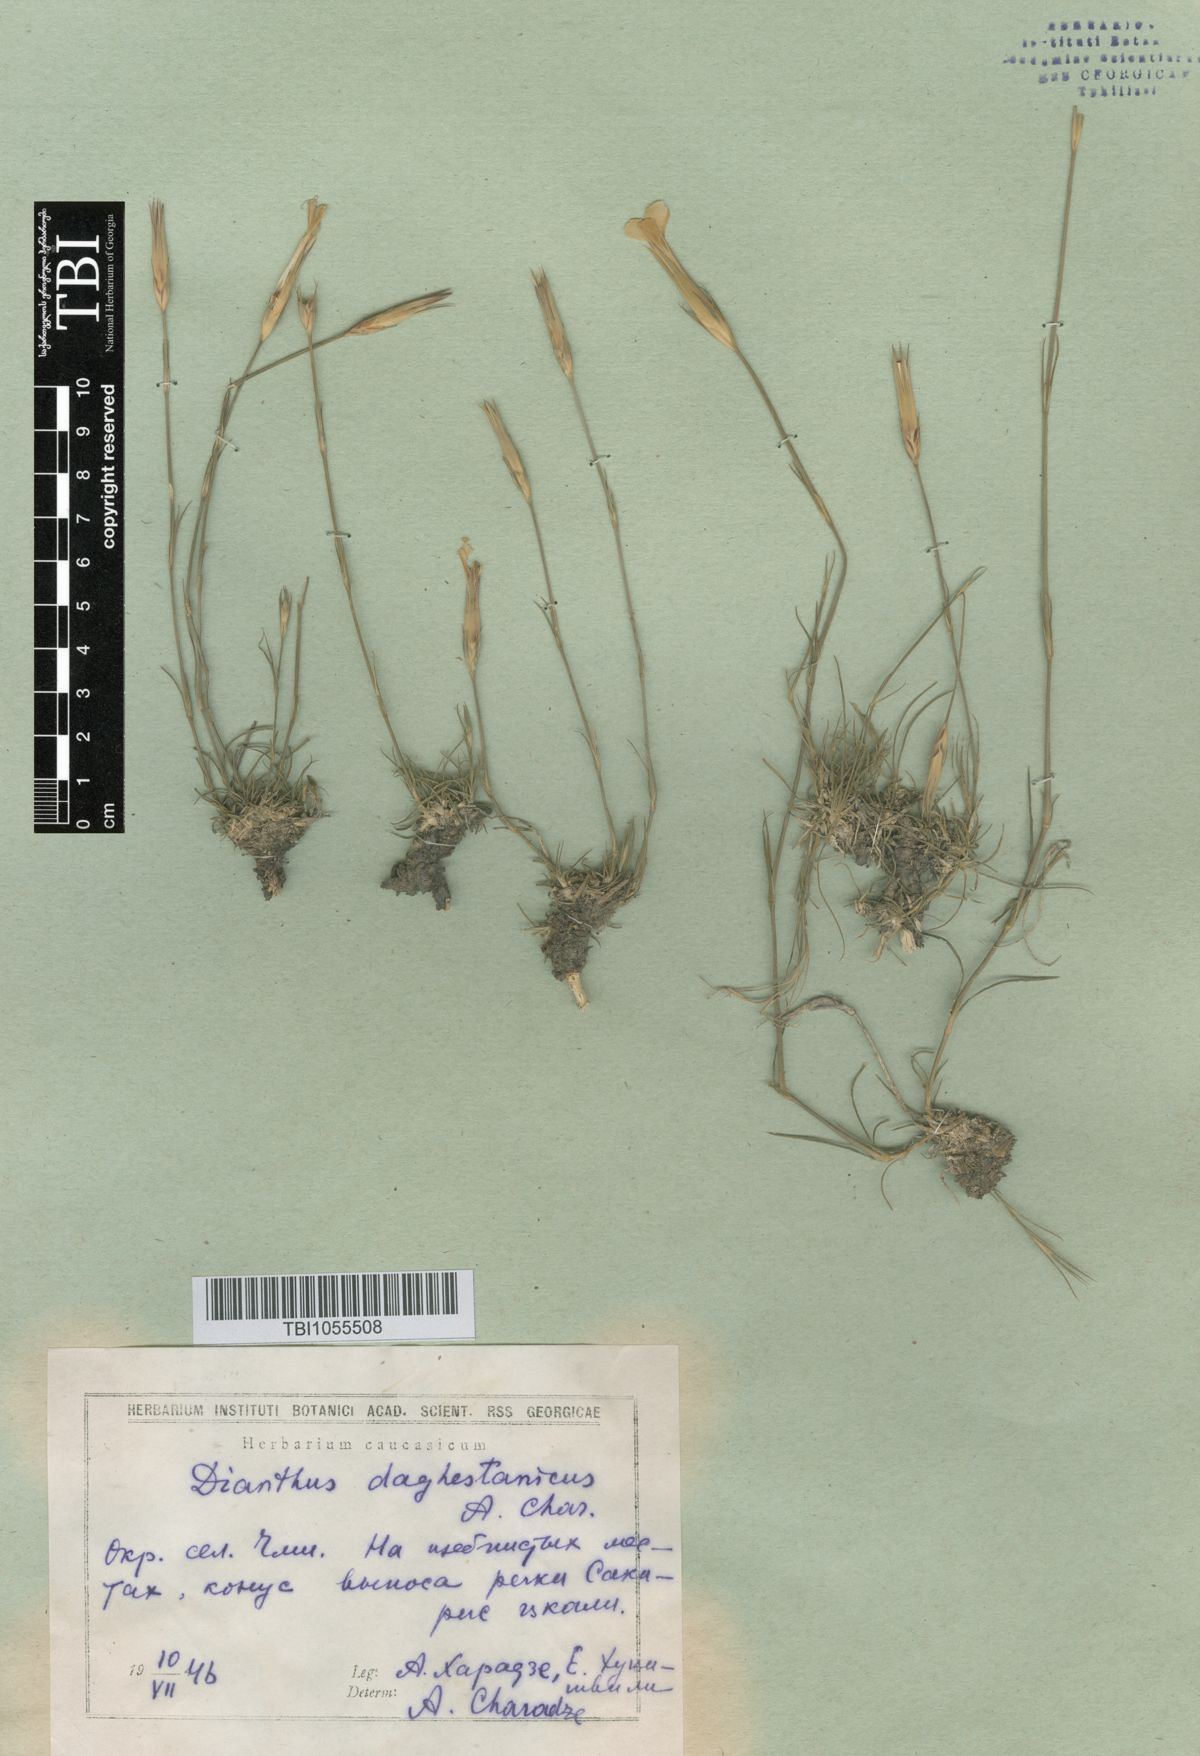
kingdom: Plantae
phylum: Tracheophyta
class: Magnoliopsida
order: Caryophyllales
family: Caryophyllaceae
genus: Dianthus
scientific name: Dianthus daghestanicus
